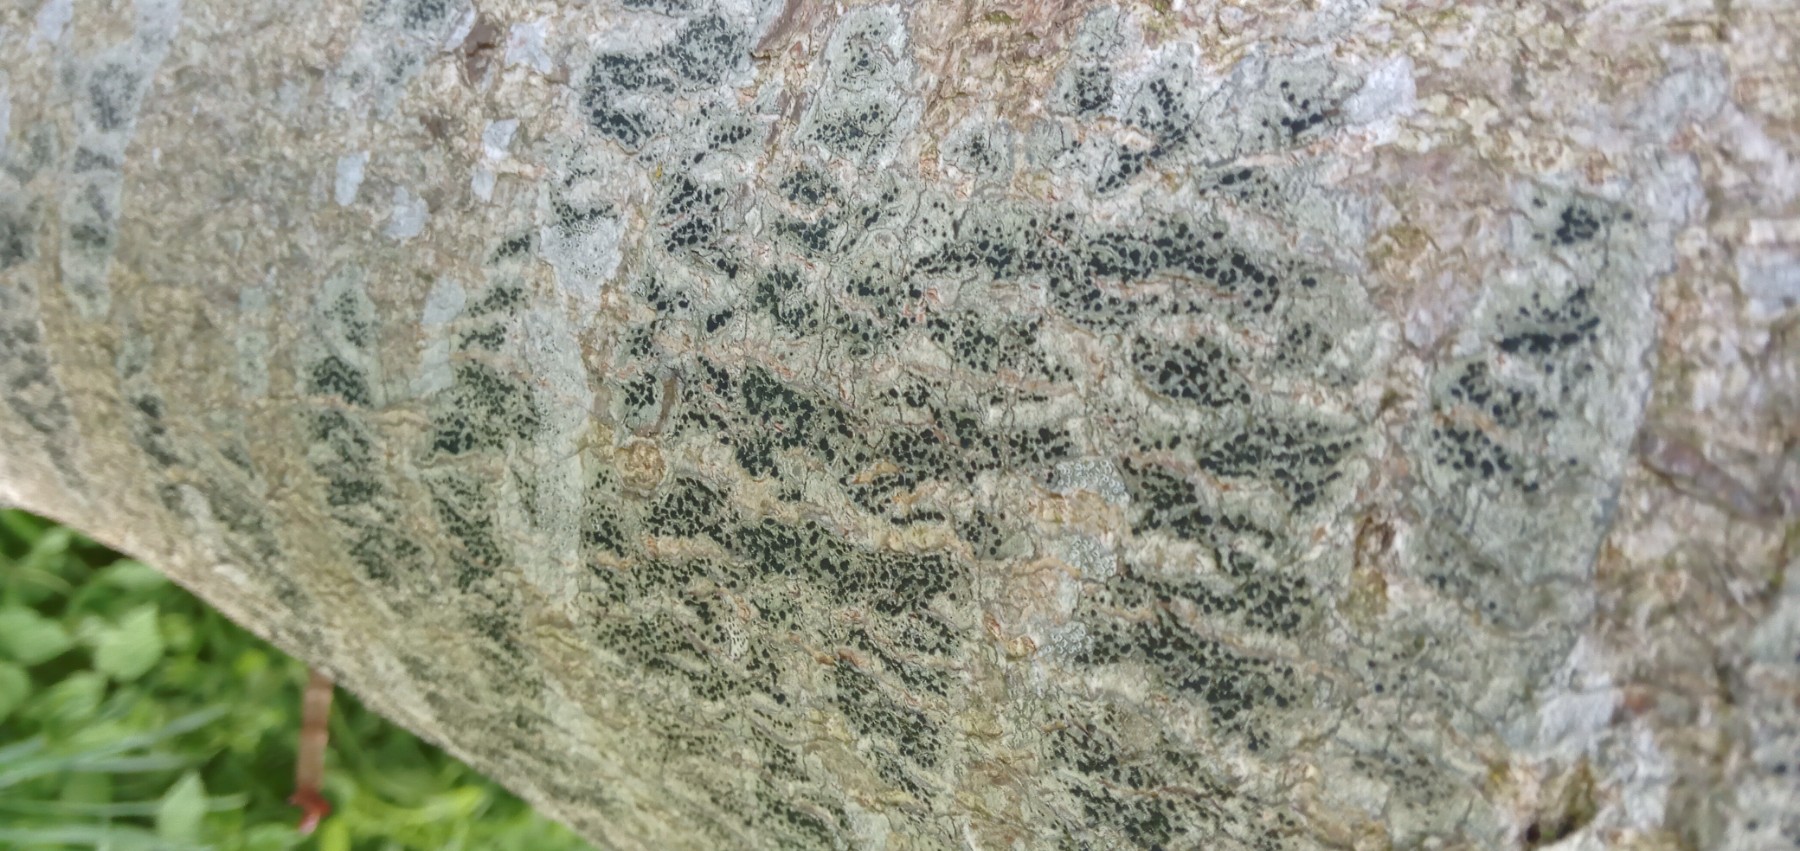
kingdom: Fungi
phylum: Ascomycota
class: Lecanoromycetes
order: Lecanorales
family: Lecanoraceae
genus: Lecidella
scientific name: Lecidella elaeochroma
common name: grågrøn skivelav
